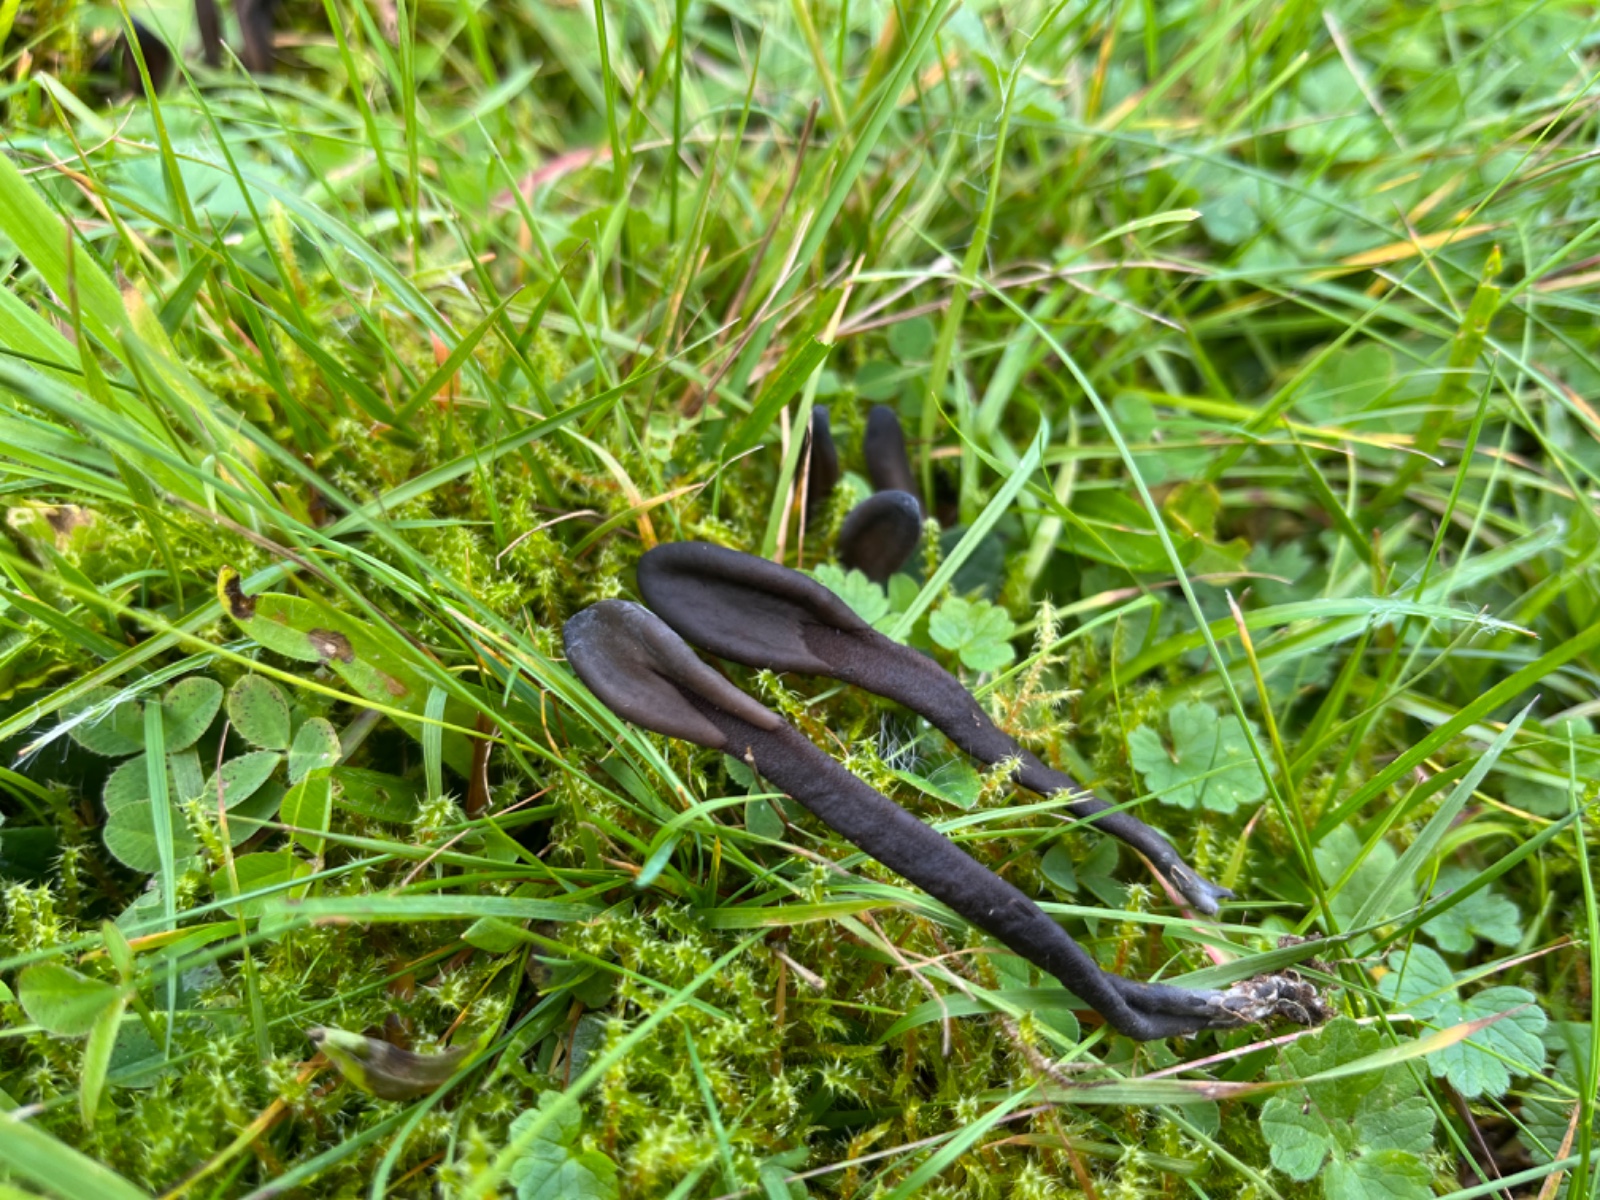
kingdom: Fungi
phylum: Ascomycota
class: Geoglossomycetes
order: Geoglossales
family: Geoglossaceae
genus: Geoglossum
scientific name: Geoglossum fallax
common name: småskællet jordtunge
